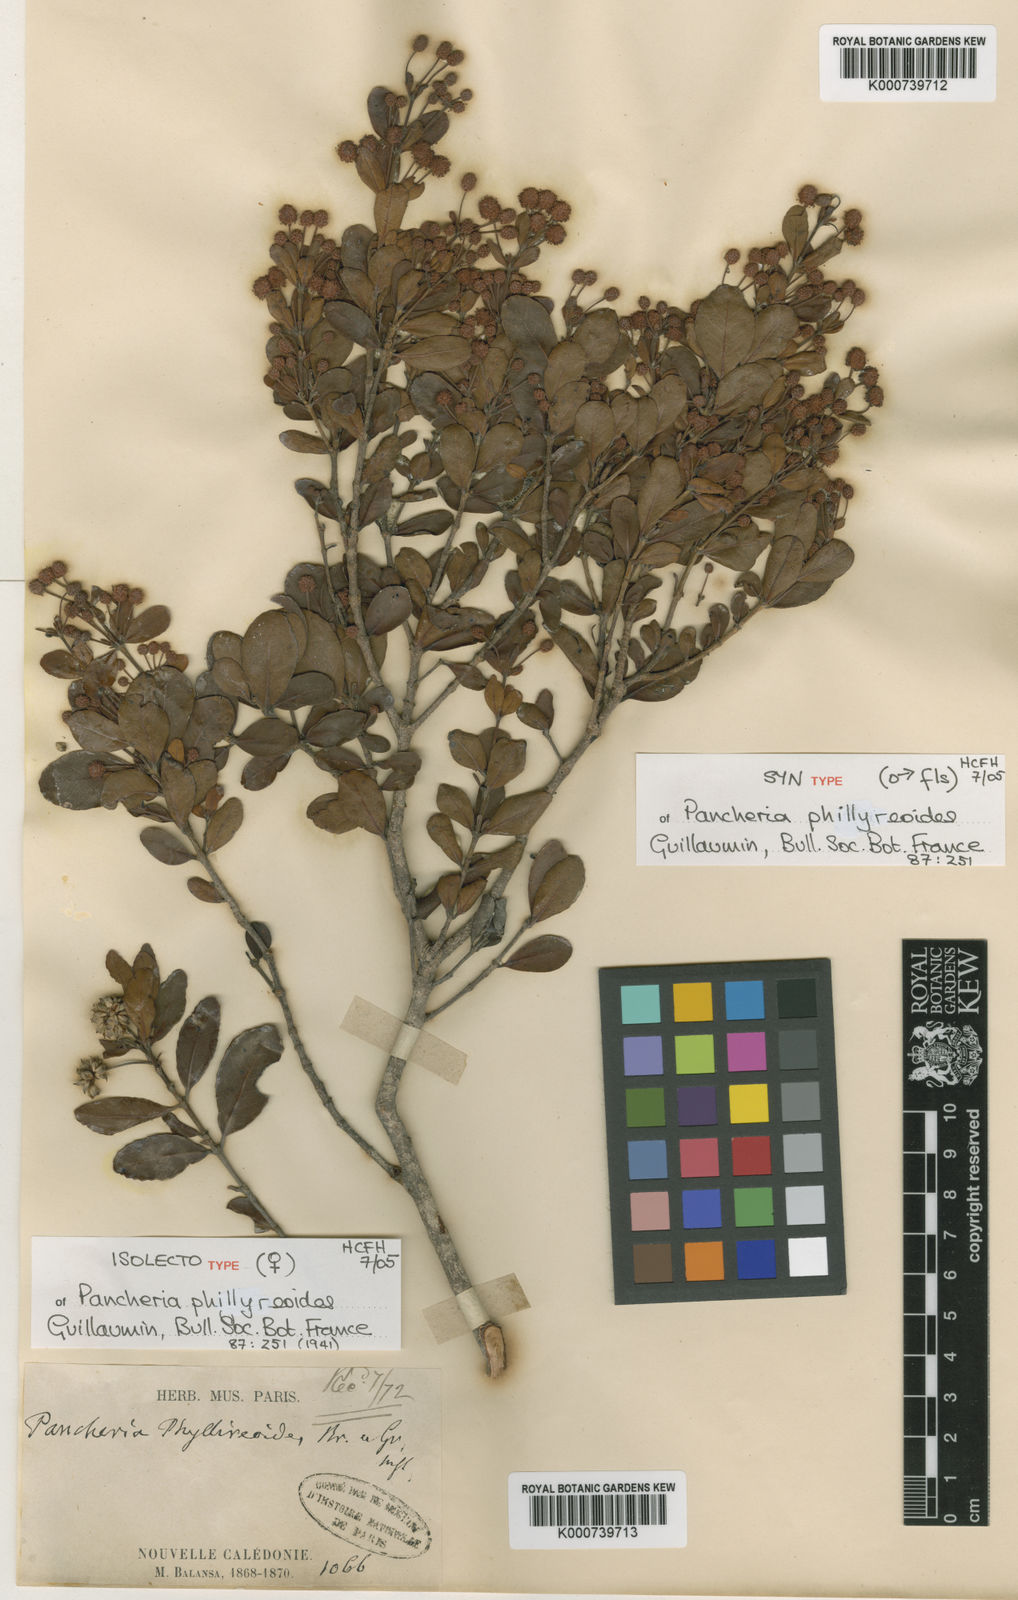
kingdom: Plantae
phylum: Tracheophyta
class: Magnoliopsida
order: Oxalidales
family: Cunoniaceae
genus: Pancheria
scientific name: Pancheria phillyreoides
